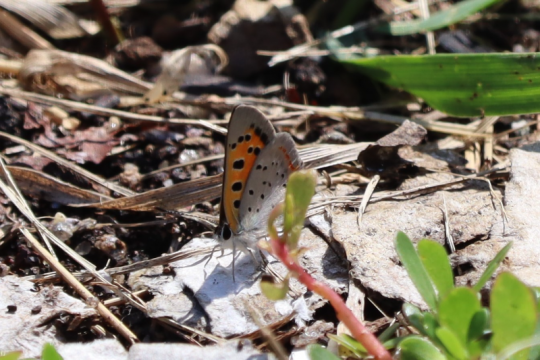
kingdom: Animalia
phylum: Arthropoda
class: Insecta
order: Lepidoptera
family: Lycaenidae
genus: Lycaena
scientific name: Lycaena phlaeas
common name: American Copper
